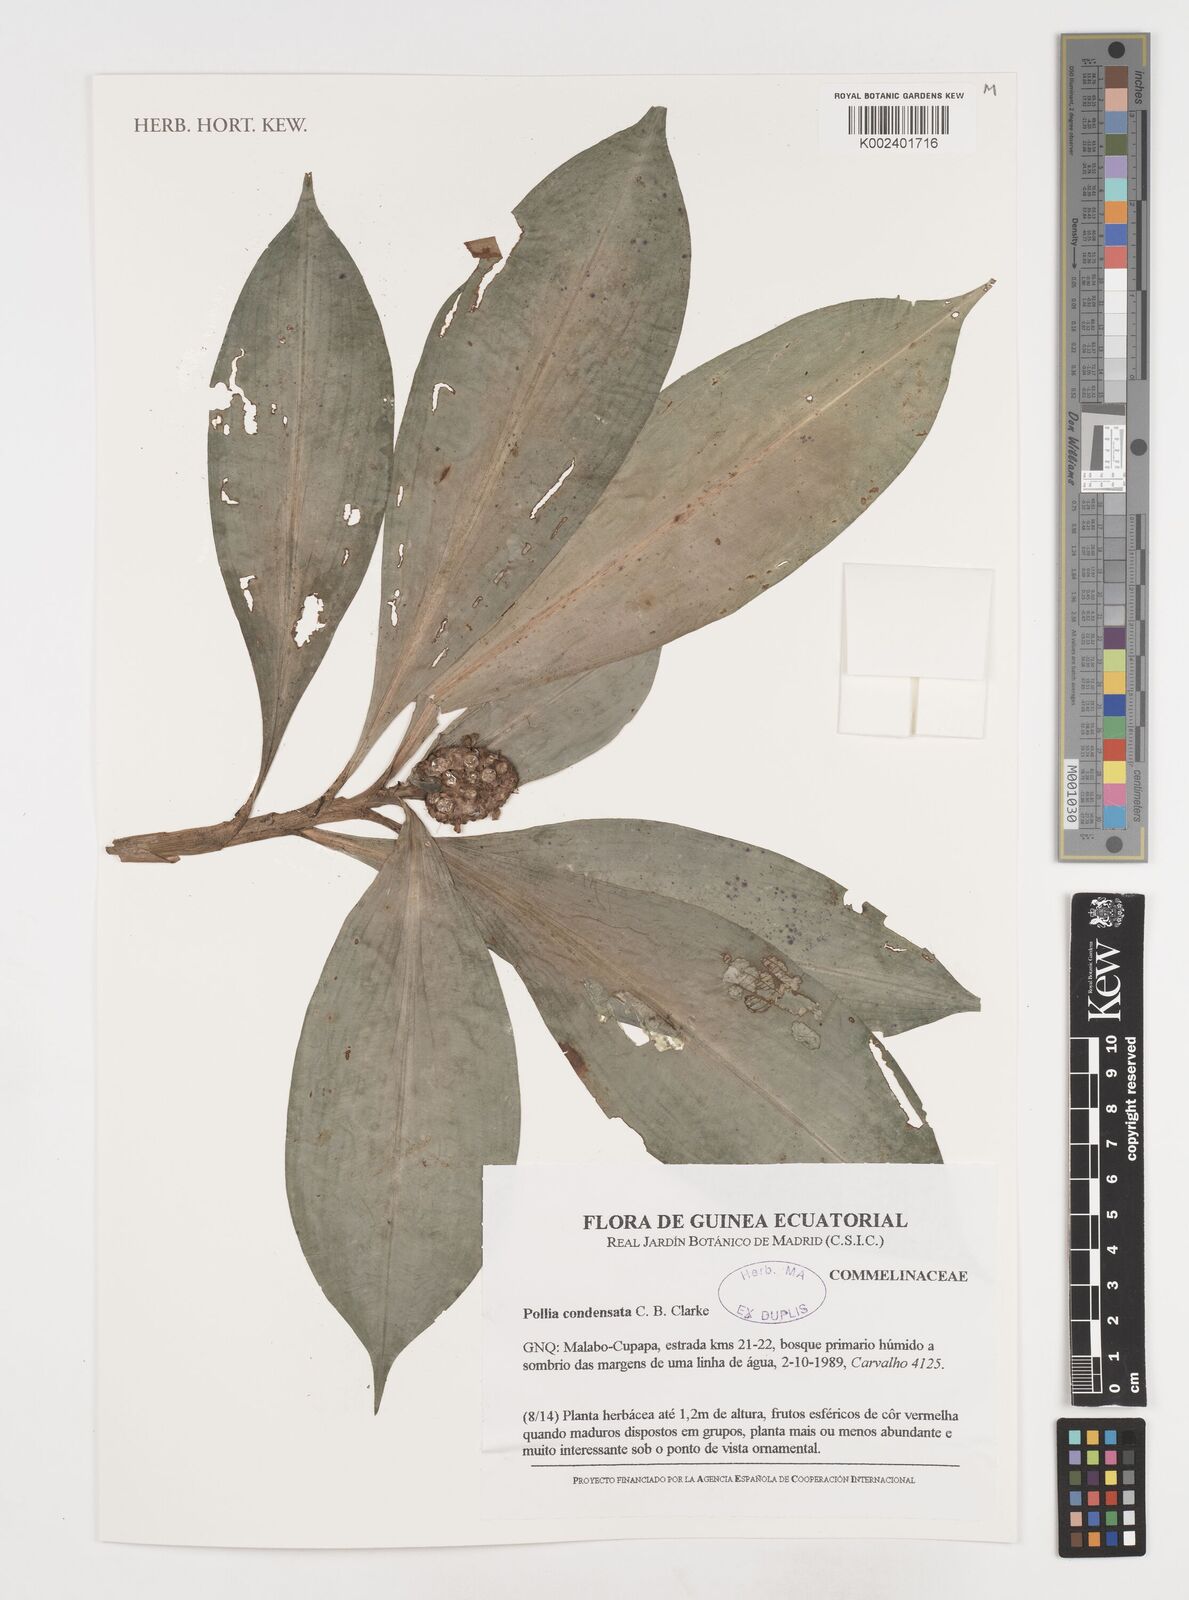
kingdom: Plantae
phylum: Tracheophyta
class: Liliopsida
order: Commelinales
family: Commelinaceae
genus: Pollia
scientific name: Pollia condensata
